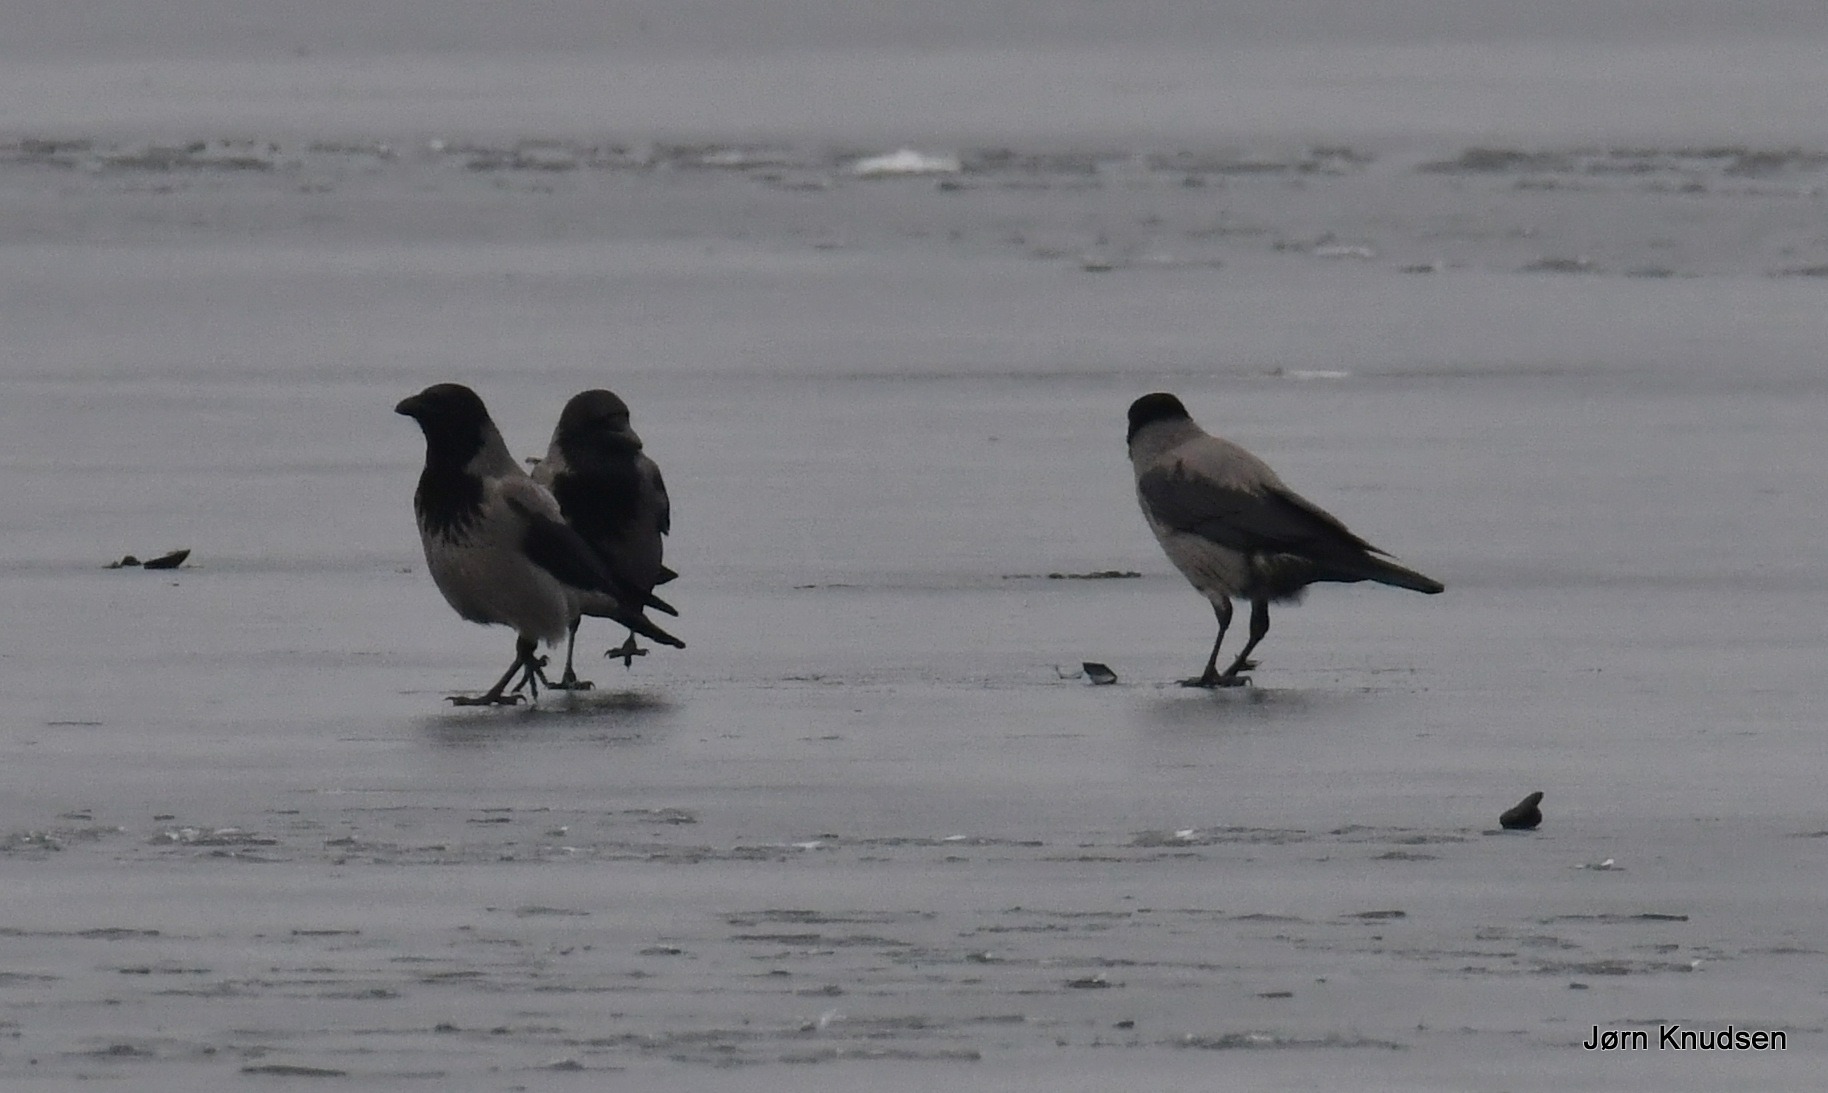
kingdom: Animalia
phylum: Chordata
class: Aves
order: Passeriformes
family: Corvidae
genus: Corvus
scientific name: Corvus cornix
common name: Gråkrage
